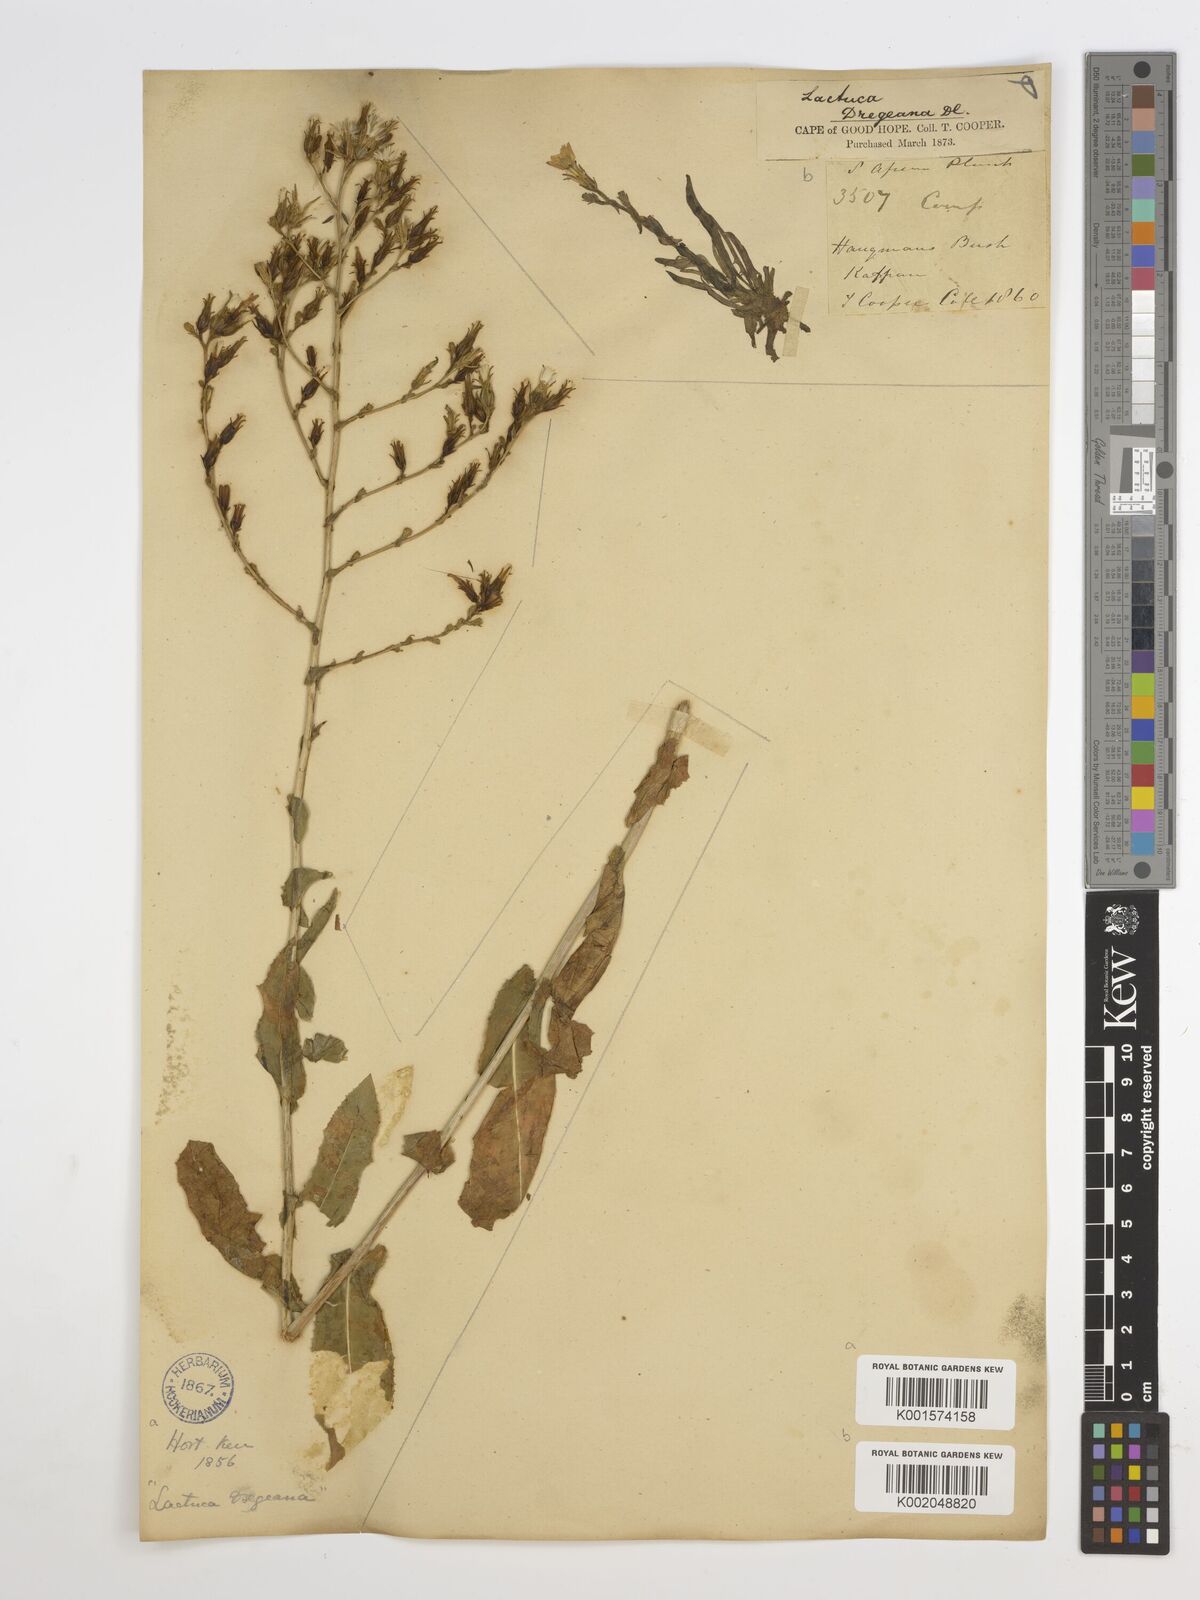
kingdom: Plantae
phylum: Tracheophyta
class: Magnoliopsida
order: Asterales
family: Asteraceae
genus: Lactuca
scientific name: Lactuca dregeana
